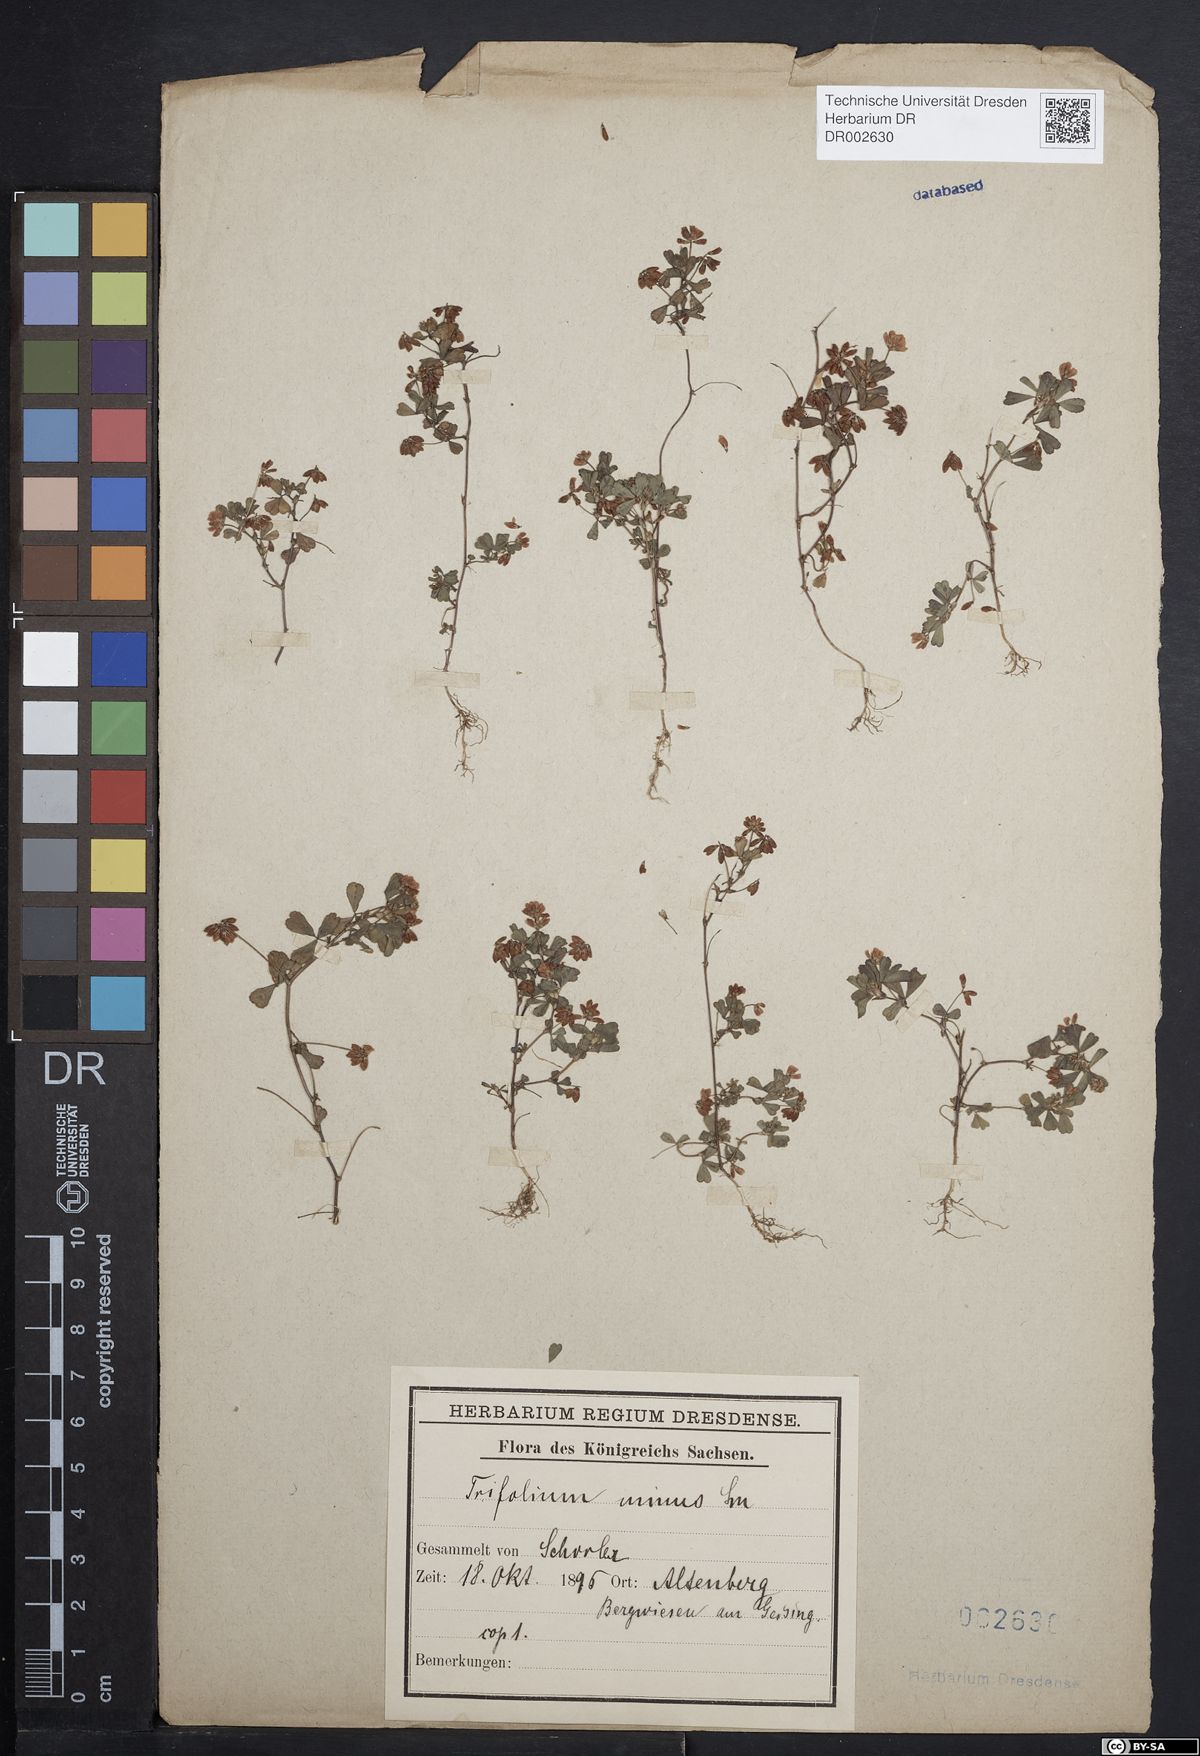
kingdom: Plantae
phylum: Tracheophyta
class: Magnoliopsida
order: Fabales
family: Fabaceae
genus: Trifolium
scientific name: Trifolium dubium
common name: Suckling clover
